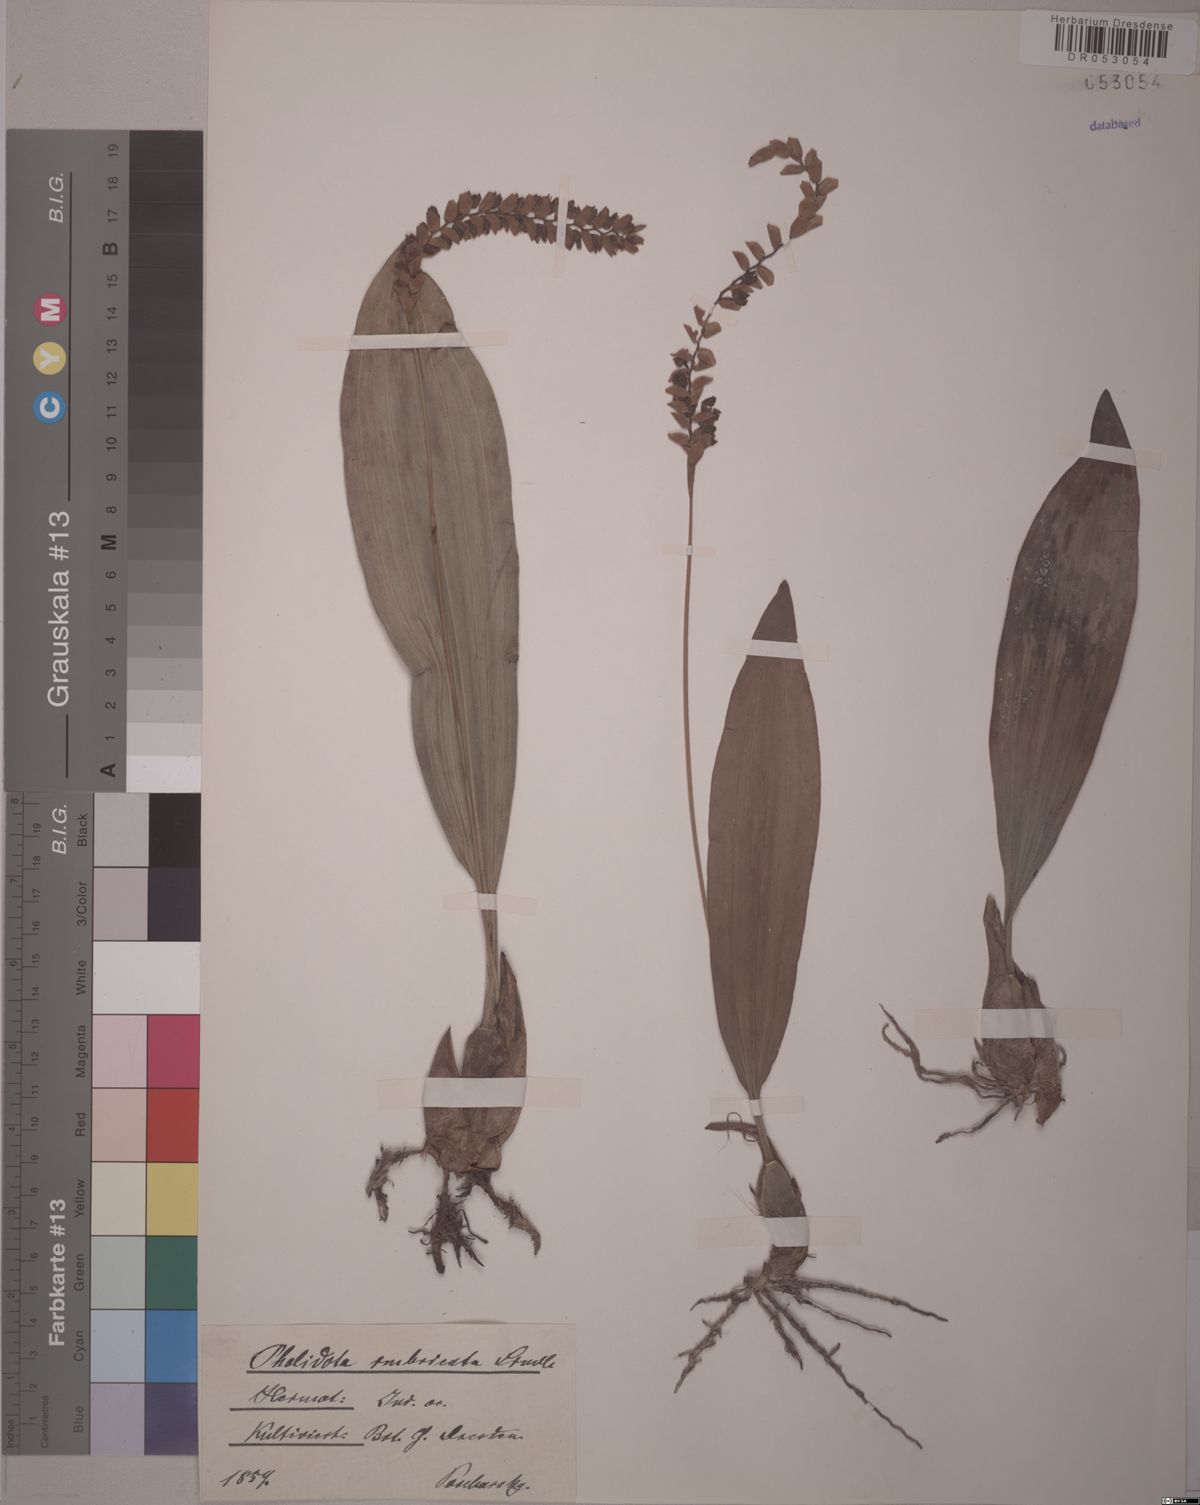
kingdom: Plantae
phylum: Tracheophyta
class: Liliopsida
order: Asparagales
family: Orchidaceae
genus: Pholidota
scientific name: Pholidota imbricata
